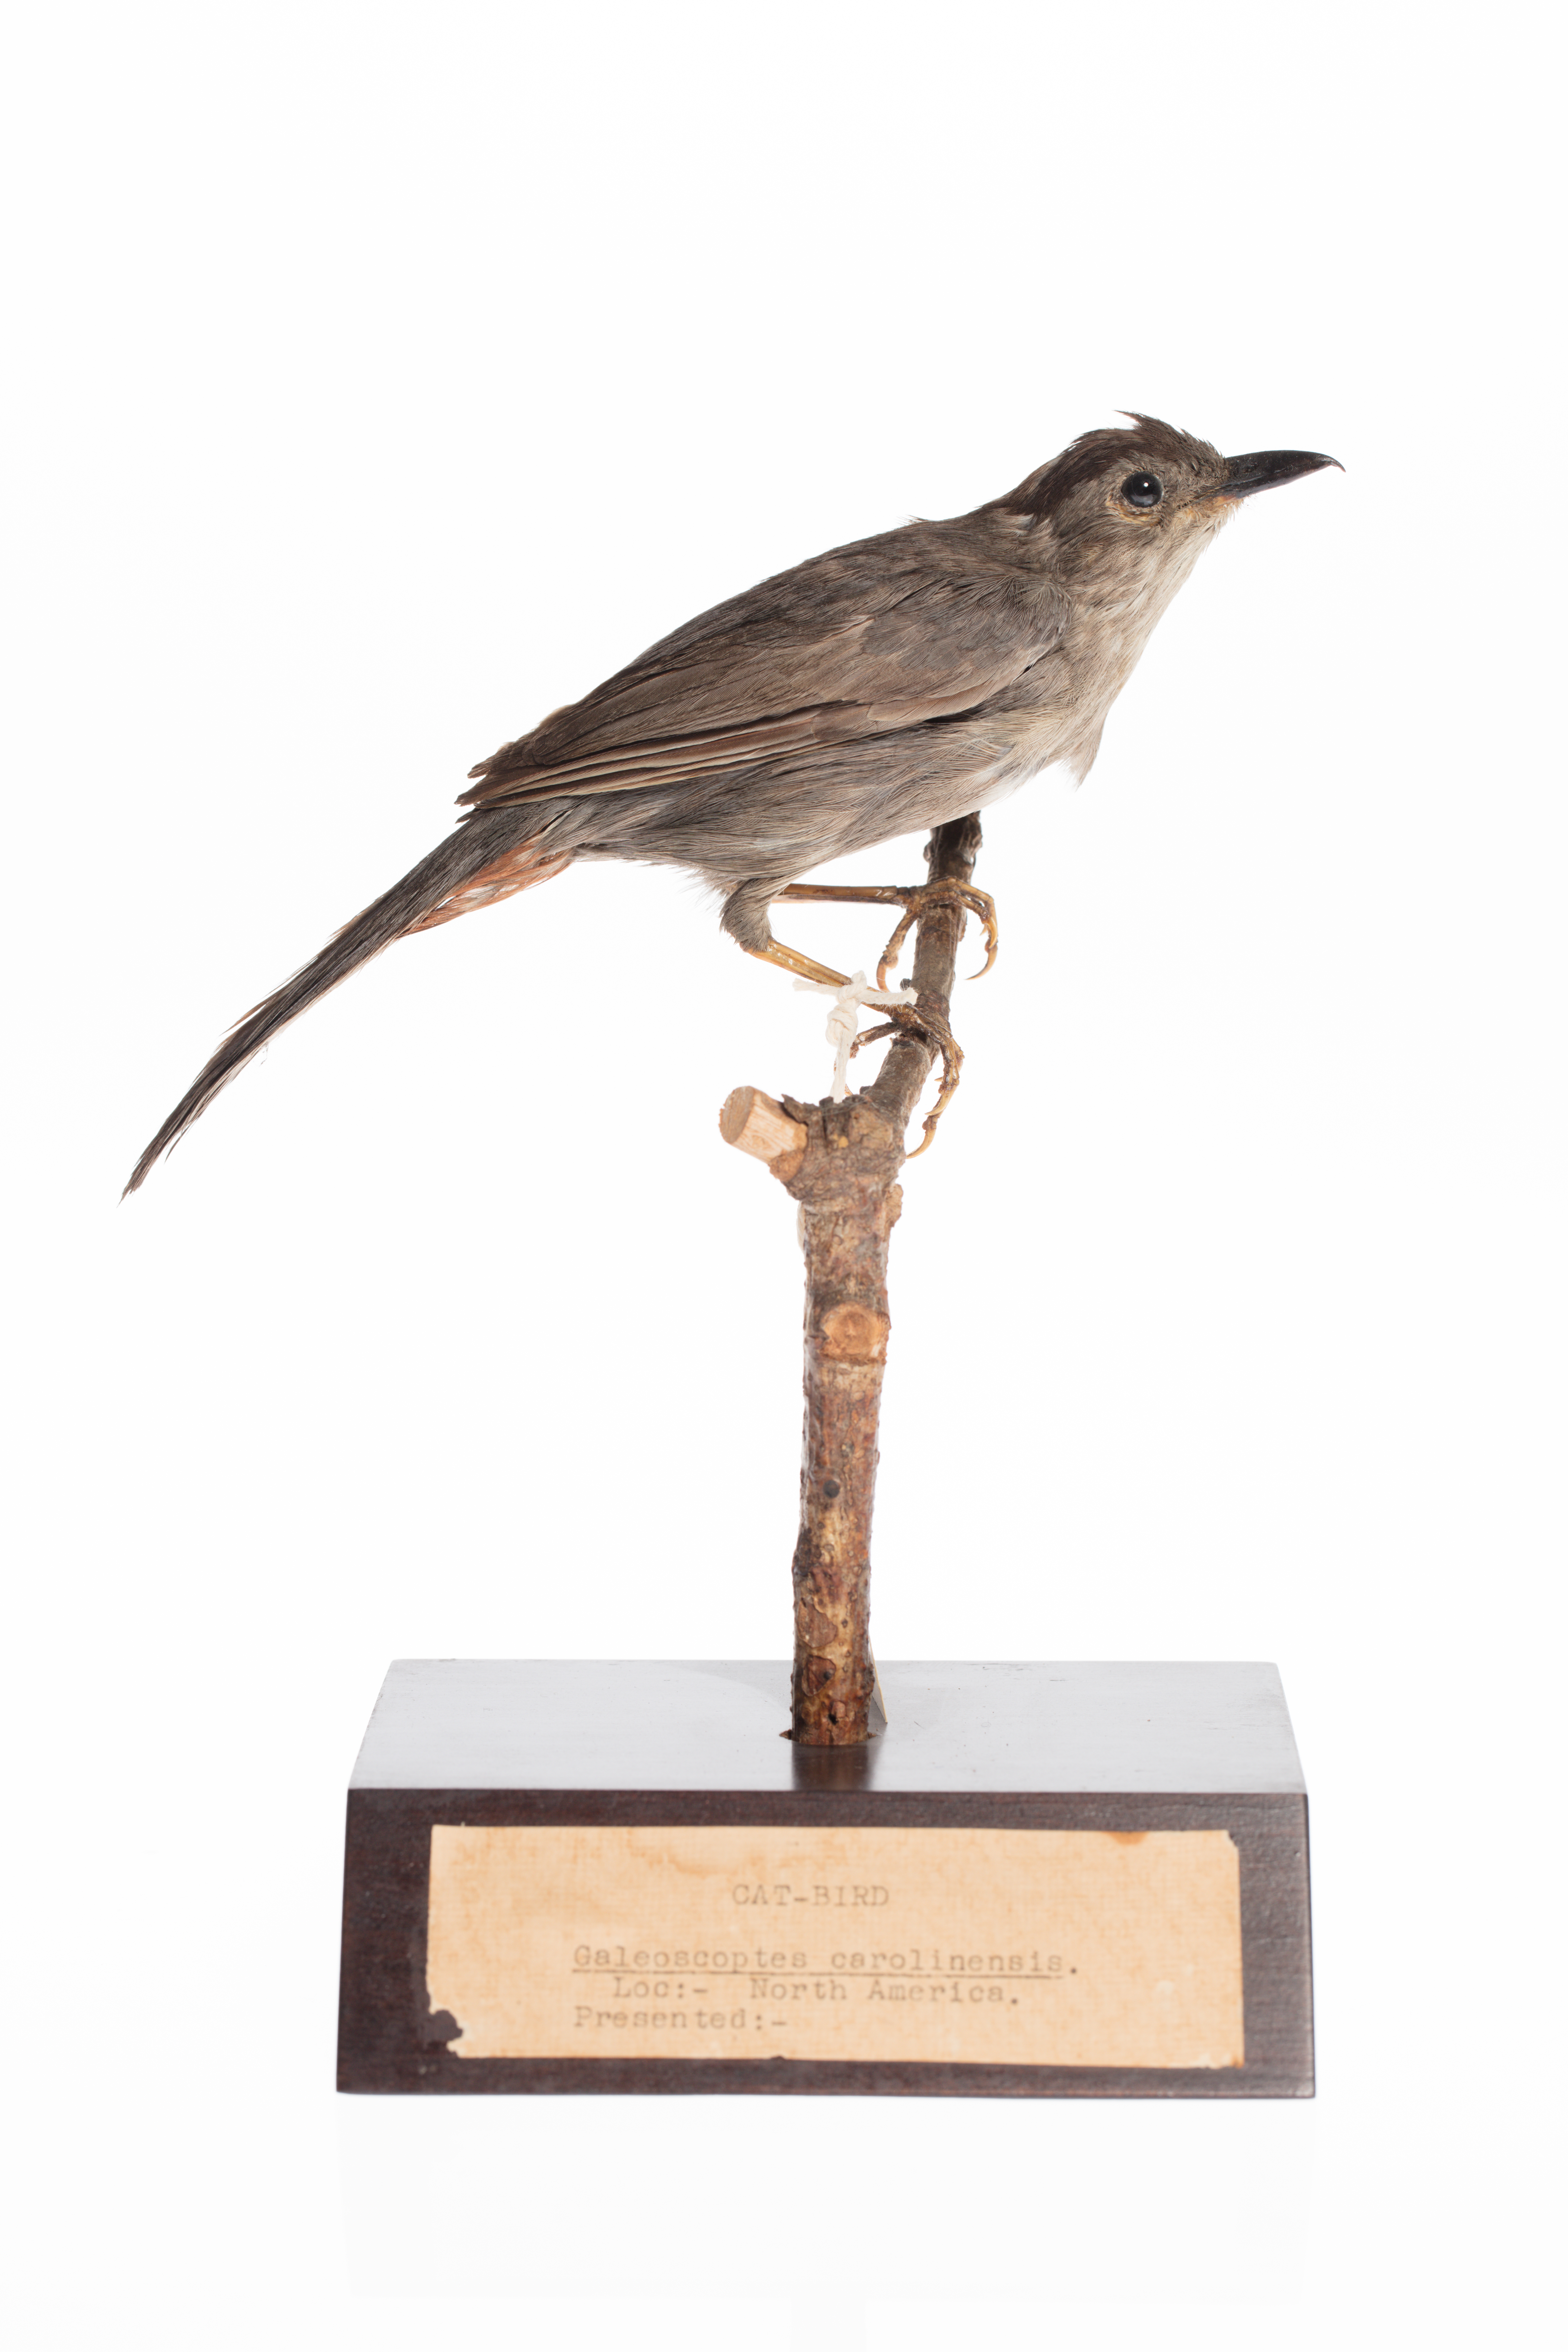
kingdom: Animalia
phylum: Chordata
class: Aves
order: Passeriformes
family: Mimidae
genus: Dumetella
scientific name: Dumetella carolinensis
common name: Gray catbird
